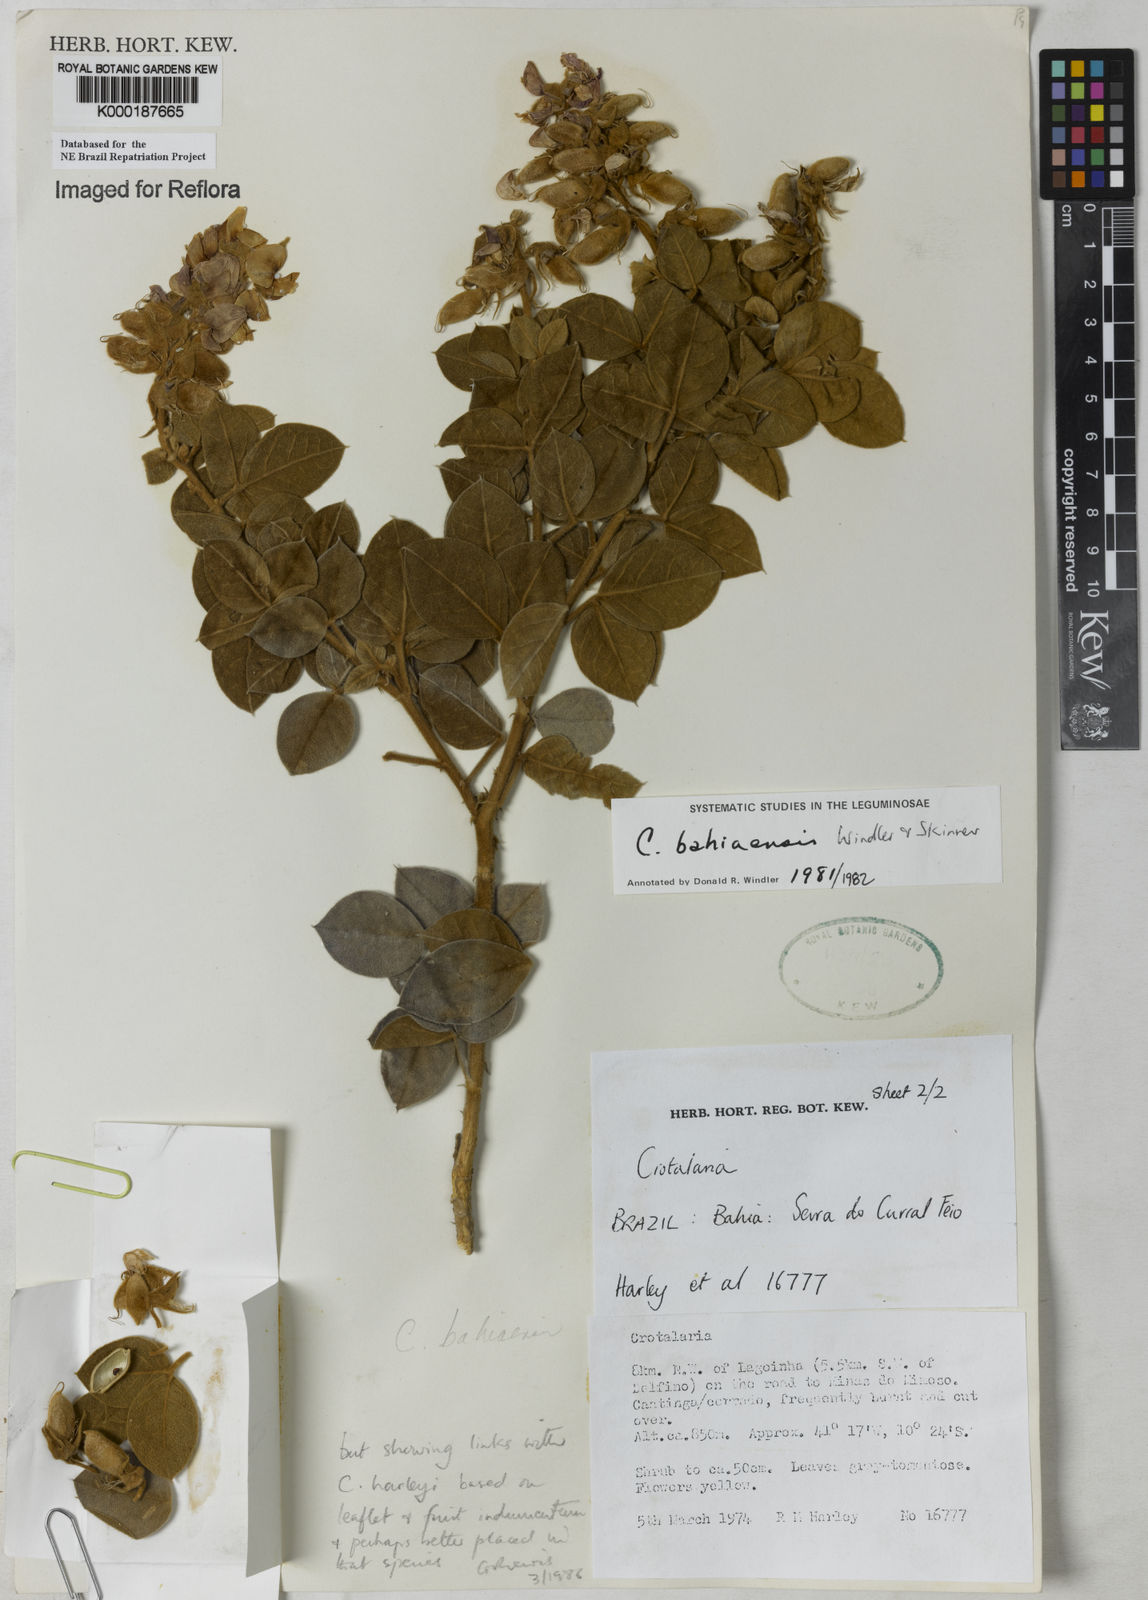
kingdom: Plantae
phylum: Tracheophyta
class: Magnoliopsida
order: Fabales
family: Fabaceae
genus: Crotalaria
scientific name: Crotalaria
